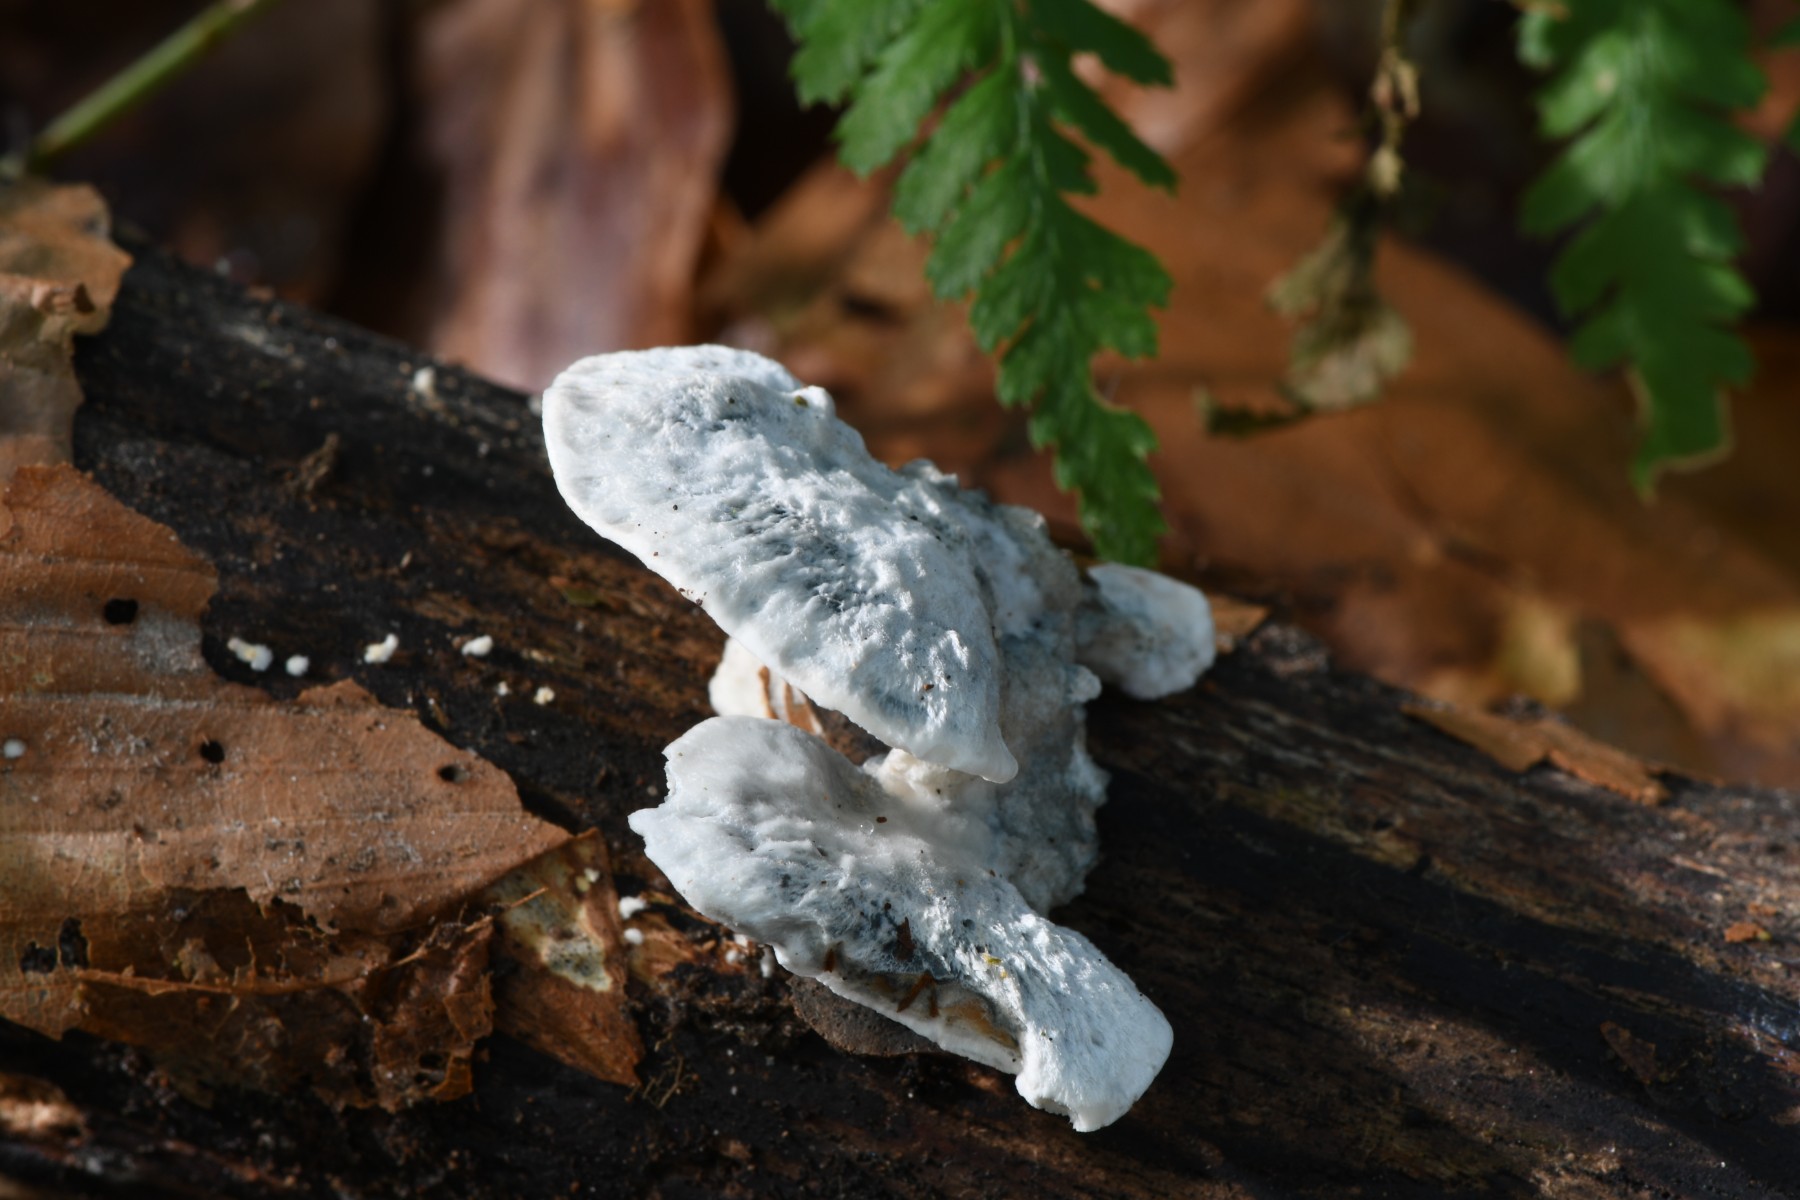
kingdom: Fungi
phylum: Basidiomycota
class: Agaricomycetes
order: Polyporales
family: Polyporaceae
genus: Cyanosporus
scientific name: Cyanosporus alni
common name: blegblå kødporesvamp
